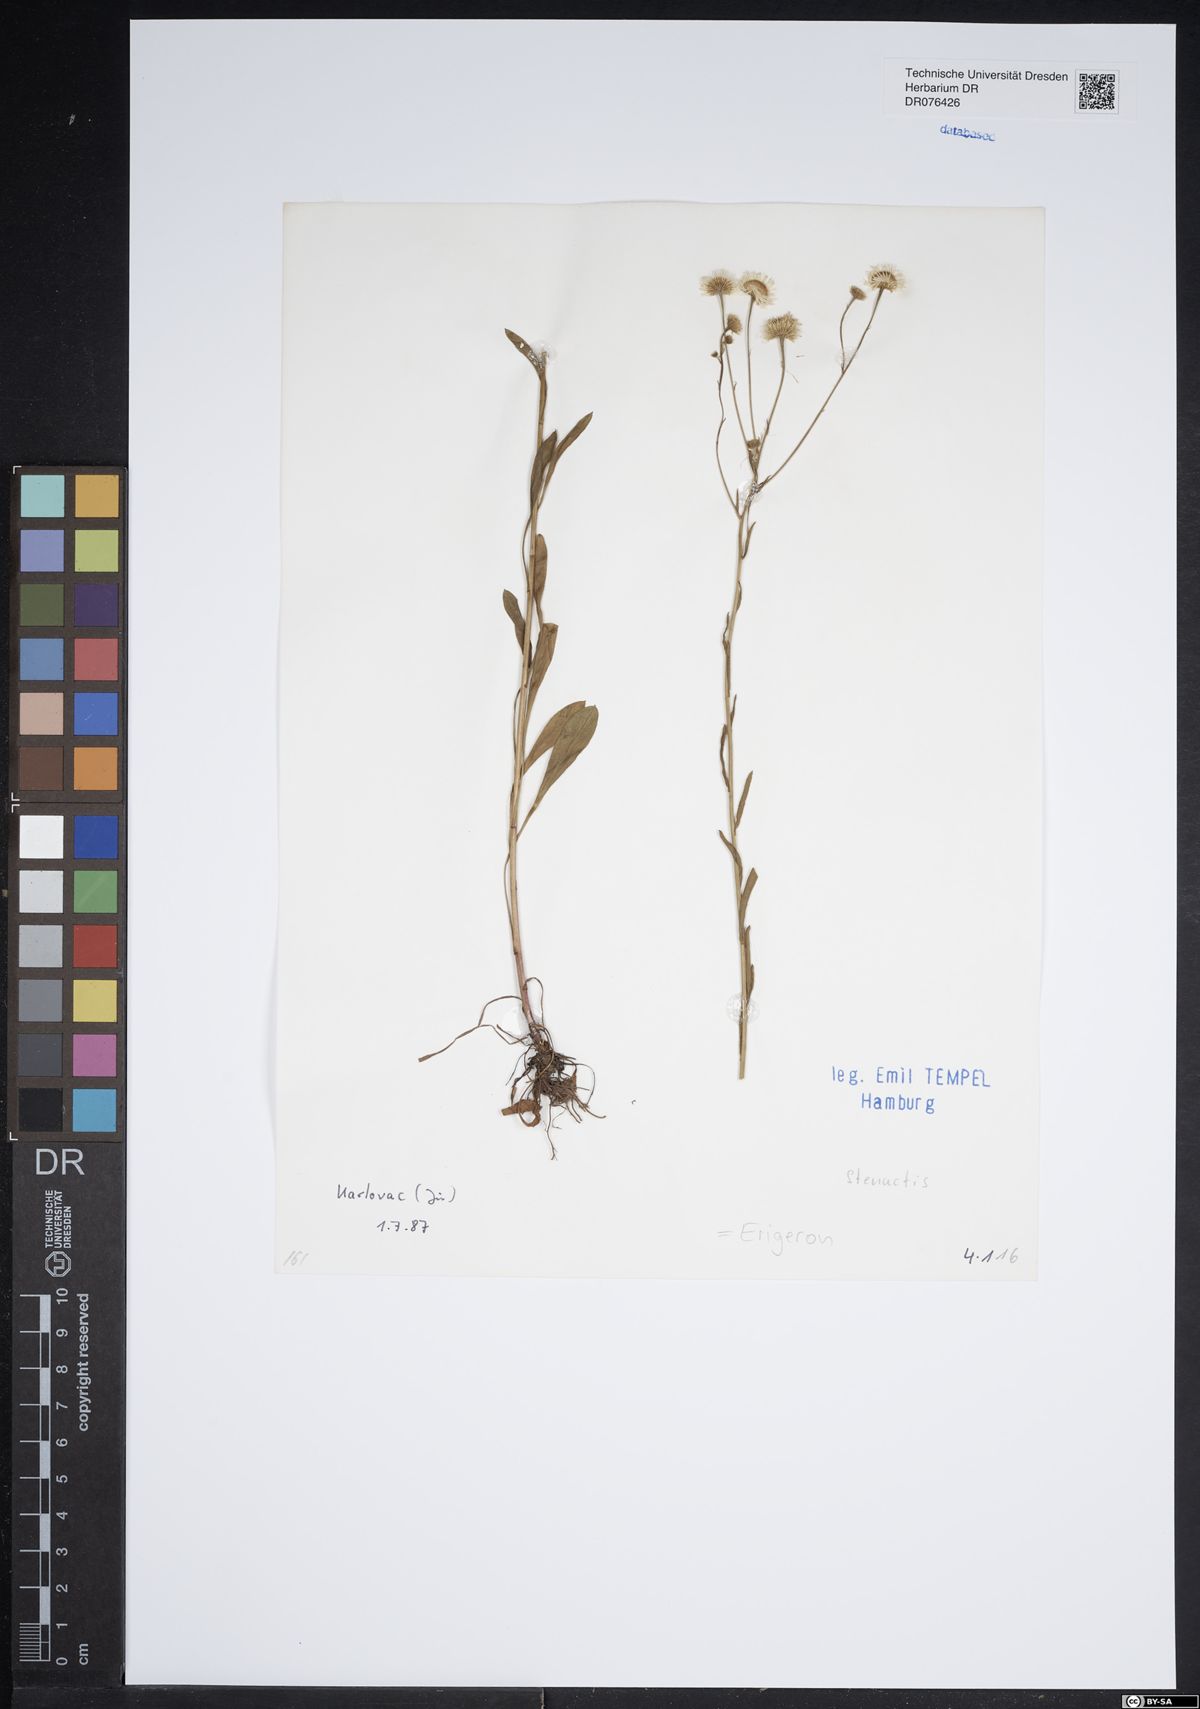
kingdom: Plantae
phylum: Tracheophyta
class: Magnoliopsida
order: Asterales
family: Asteraceae
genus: Erigeron
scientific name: Erigeron
